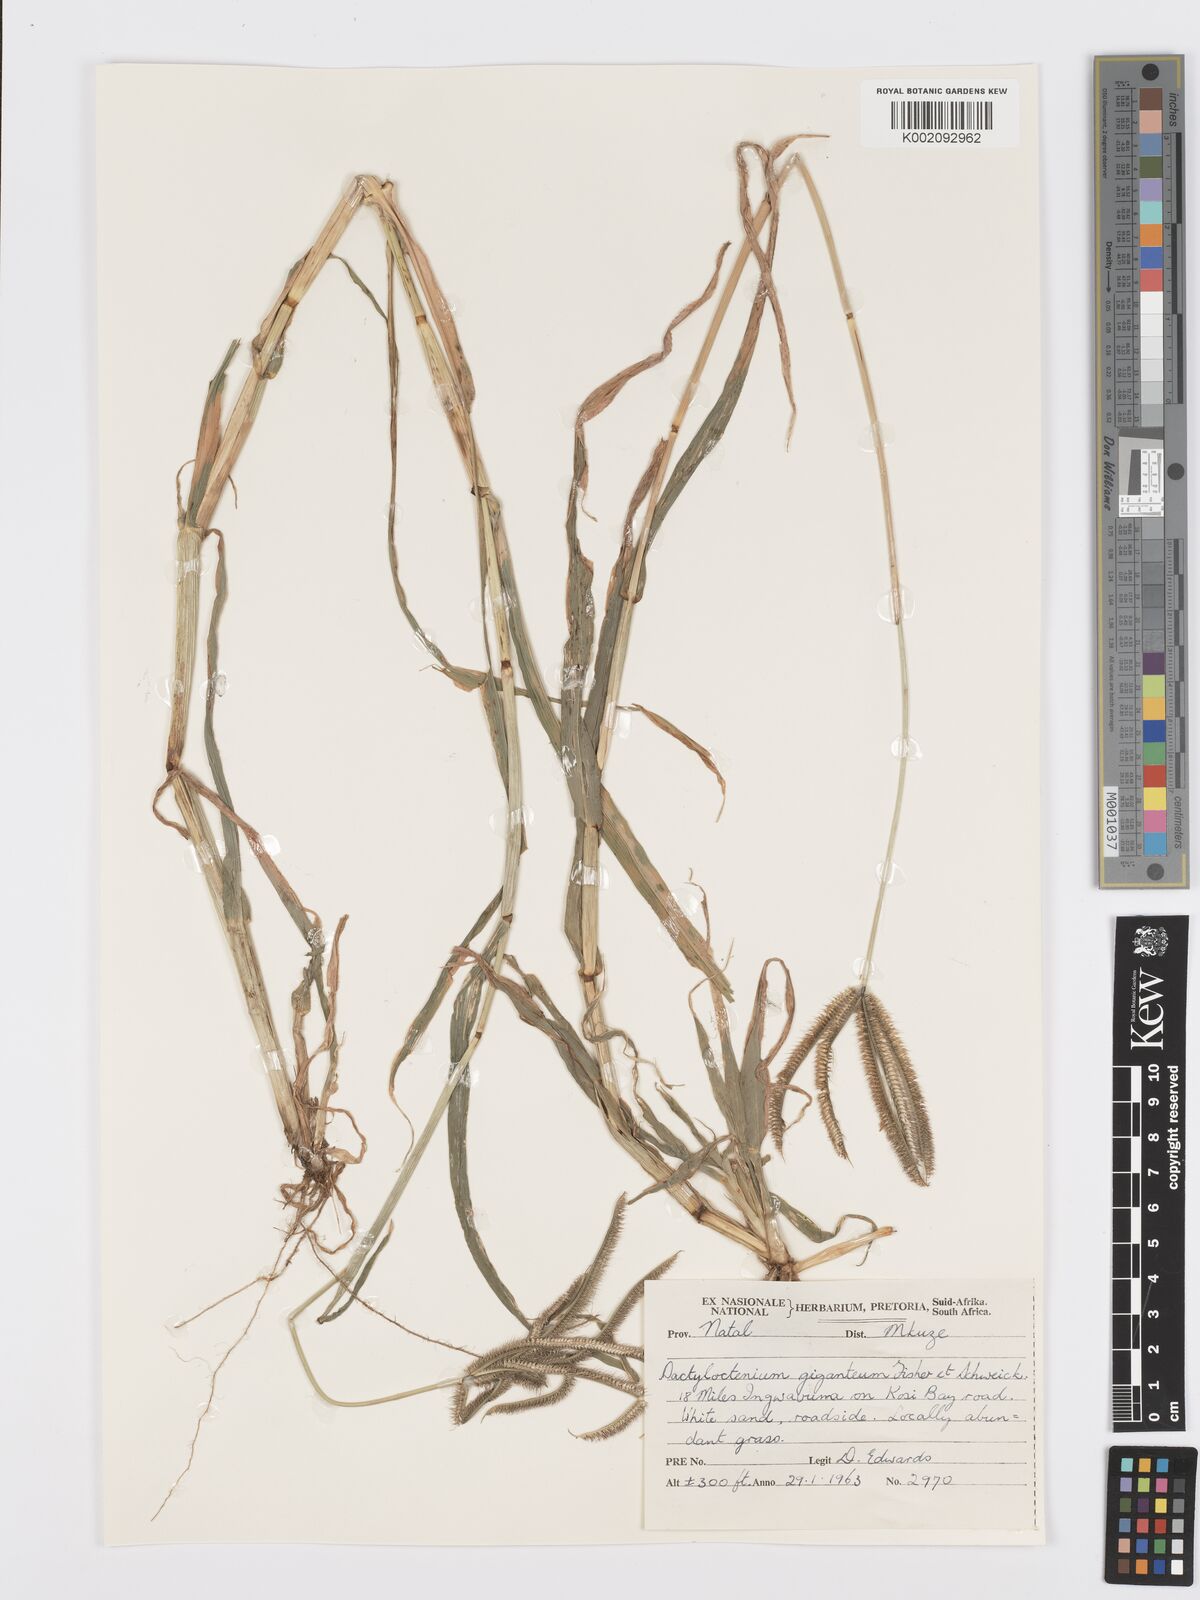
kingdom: Plantae
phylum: Tracheophyta
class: Liliopsida
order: Poales
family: Poaceae
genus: Dactyloctenium
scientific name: Dactyloctenium giganteum
